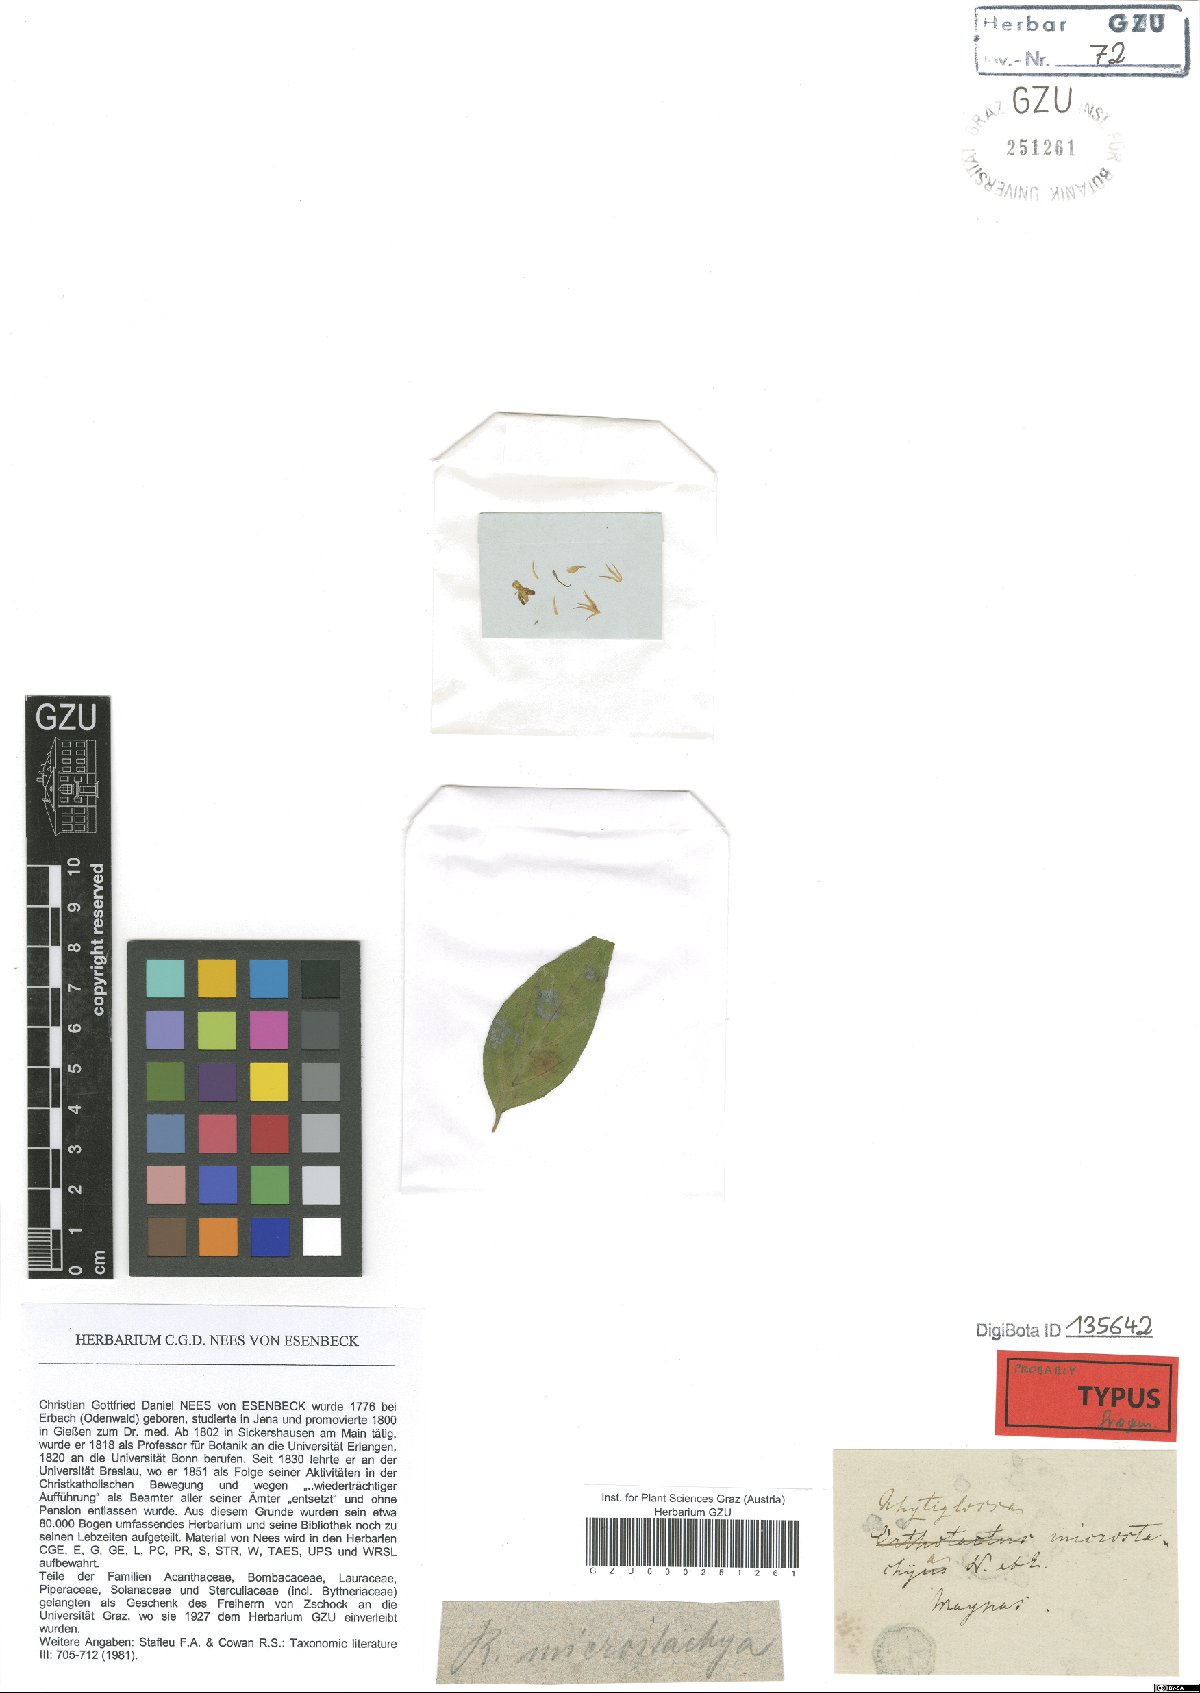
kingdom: Plantae
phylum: Tracheophyta
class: Magnoliopsida
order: Lamiales
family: Acanthaceae
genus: Isoglossa
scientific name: Isoglossa Rhytiglossa microstachya
